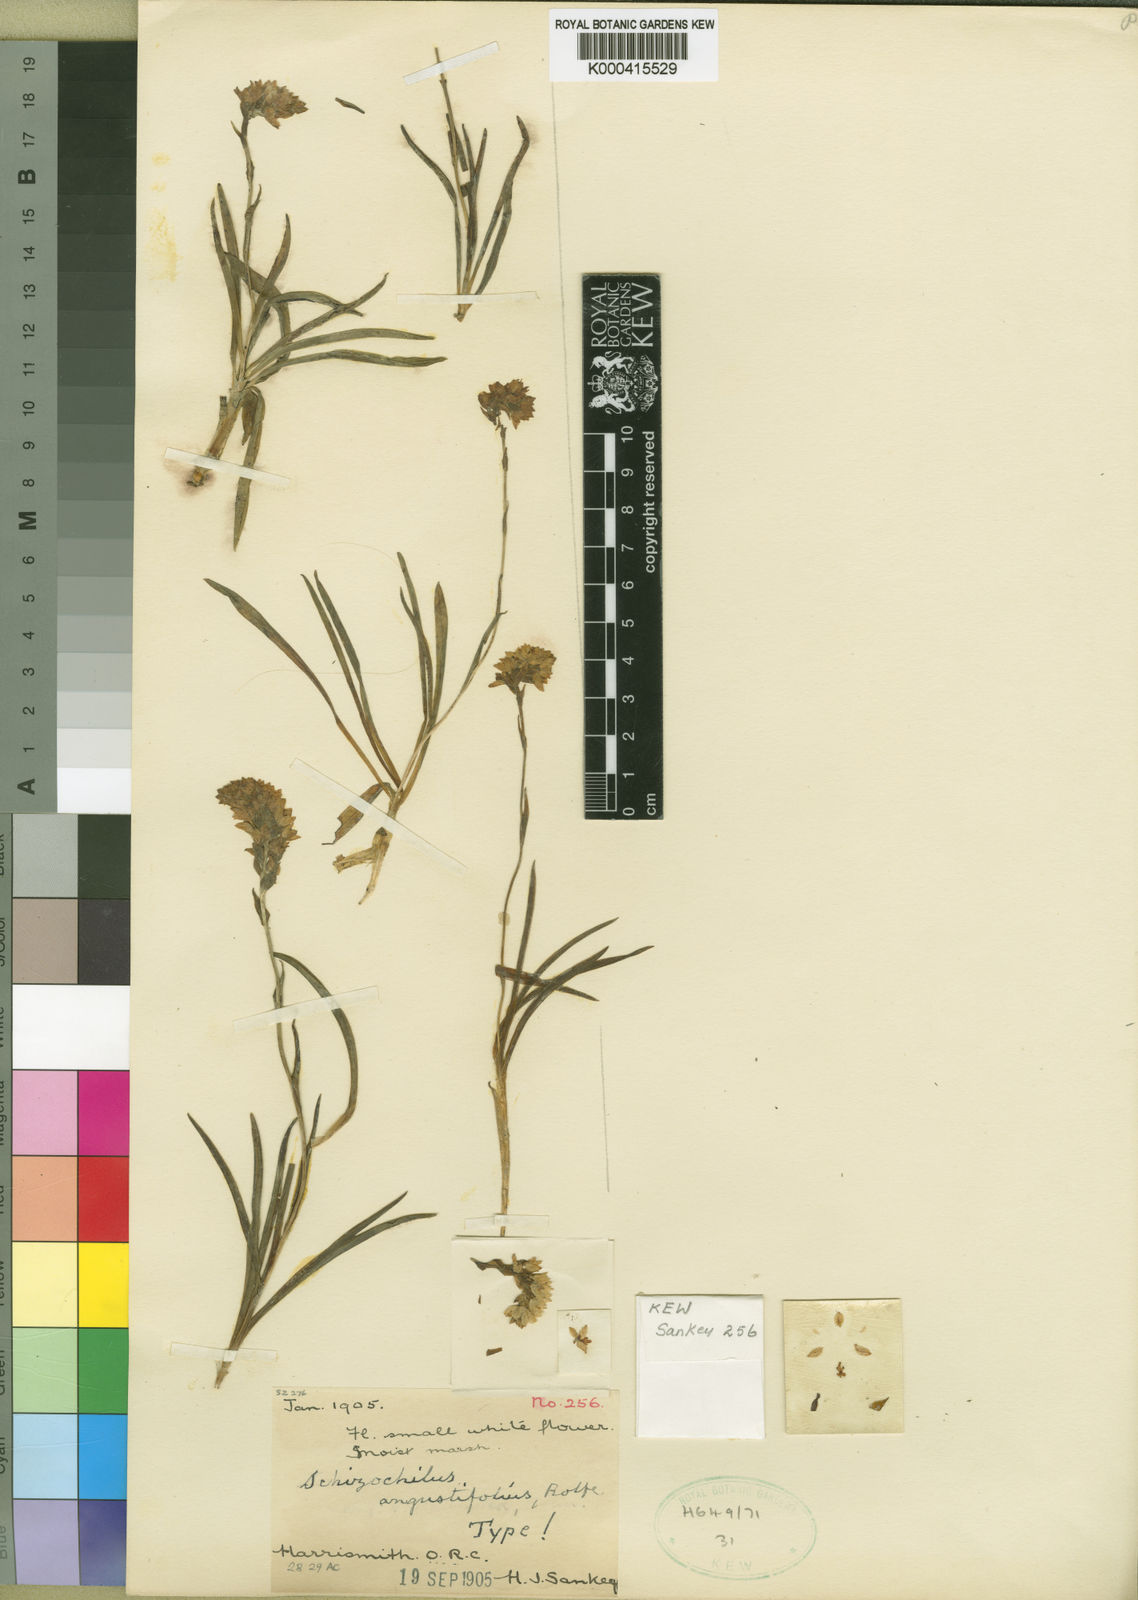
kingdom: Plantae
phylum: Tracheophyta
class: Liliopsida
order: Asparagales
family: Orchidaceae
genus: Schizochilus
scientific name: Schizochilus angustifolius
